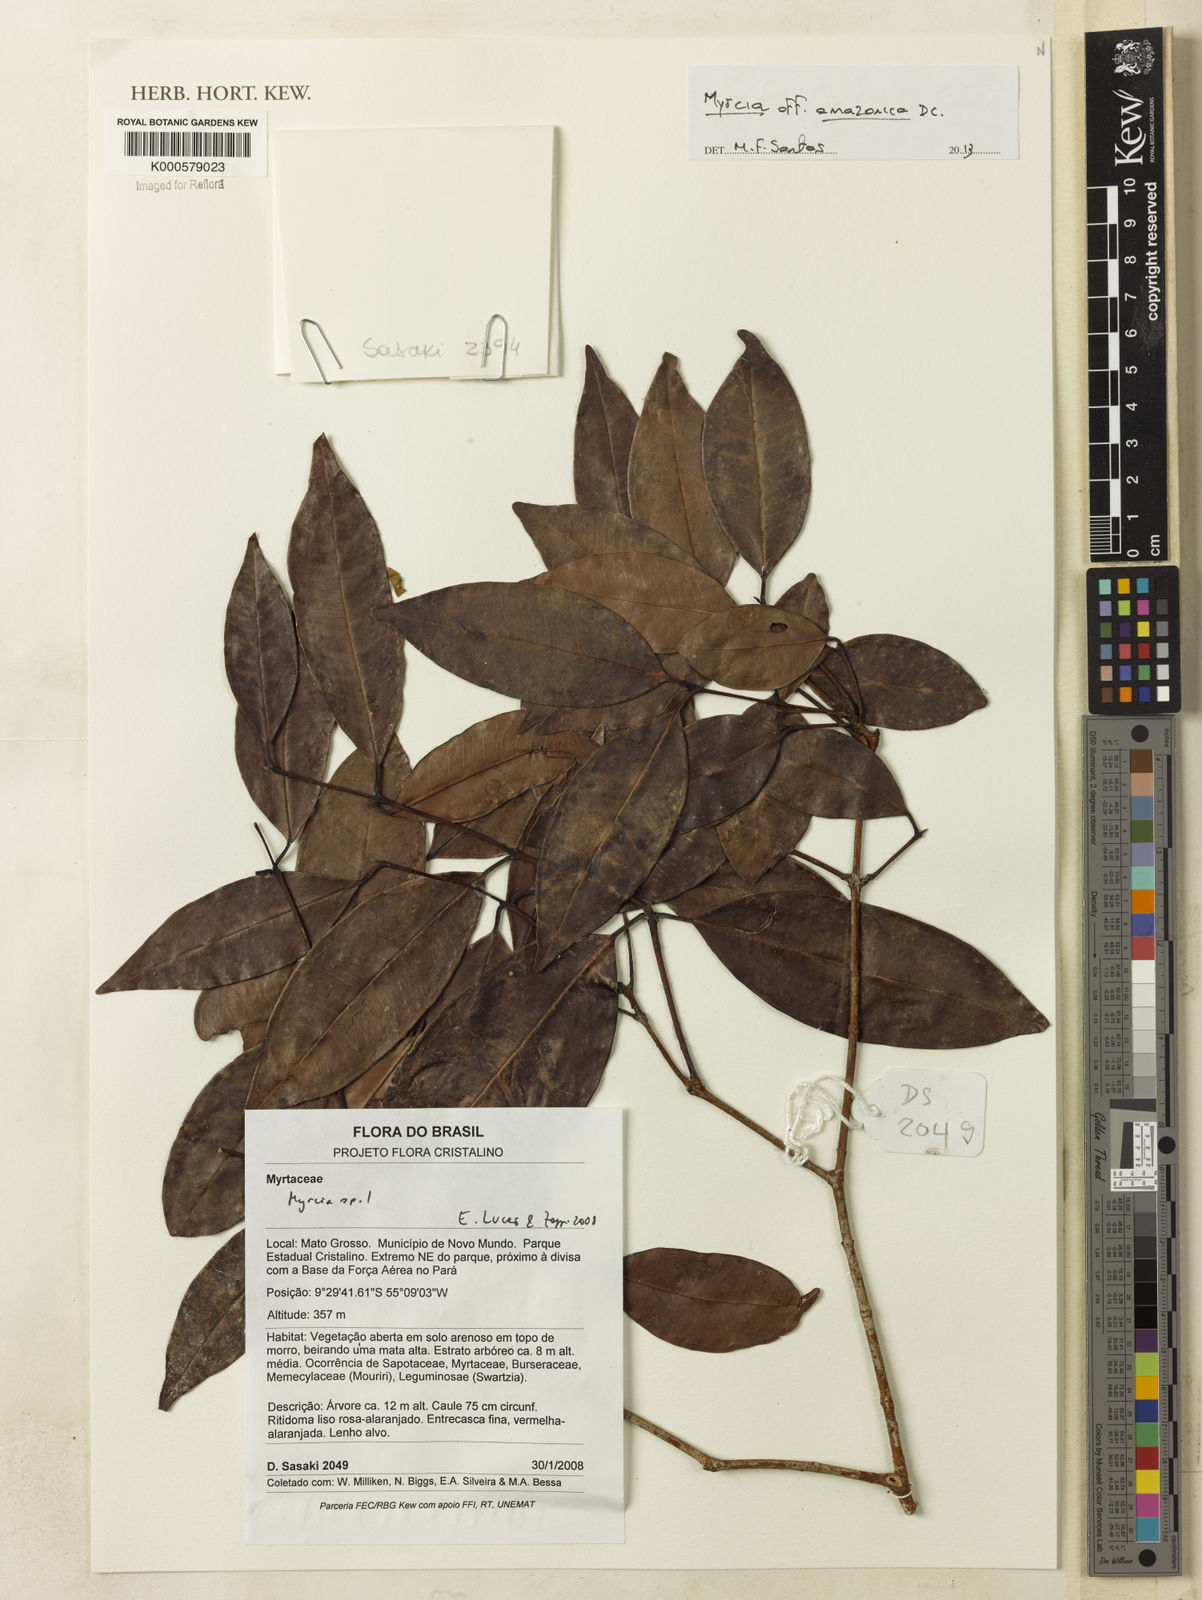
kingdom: Plantae
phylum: Tracheophyta
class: Magnoliopsida
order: Myrtales
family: Myrtaceae
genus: Myrcia
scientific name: Myrcia
